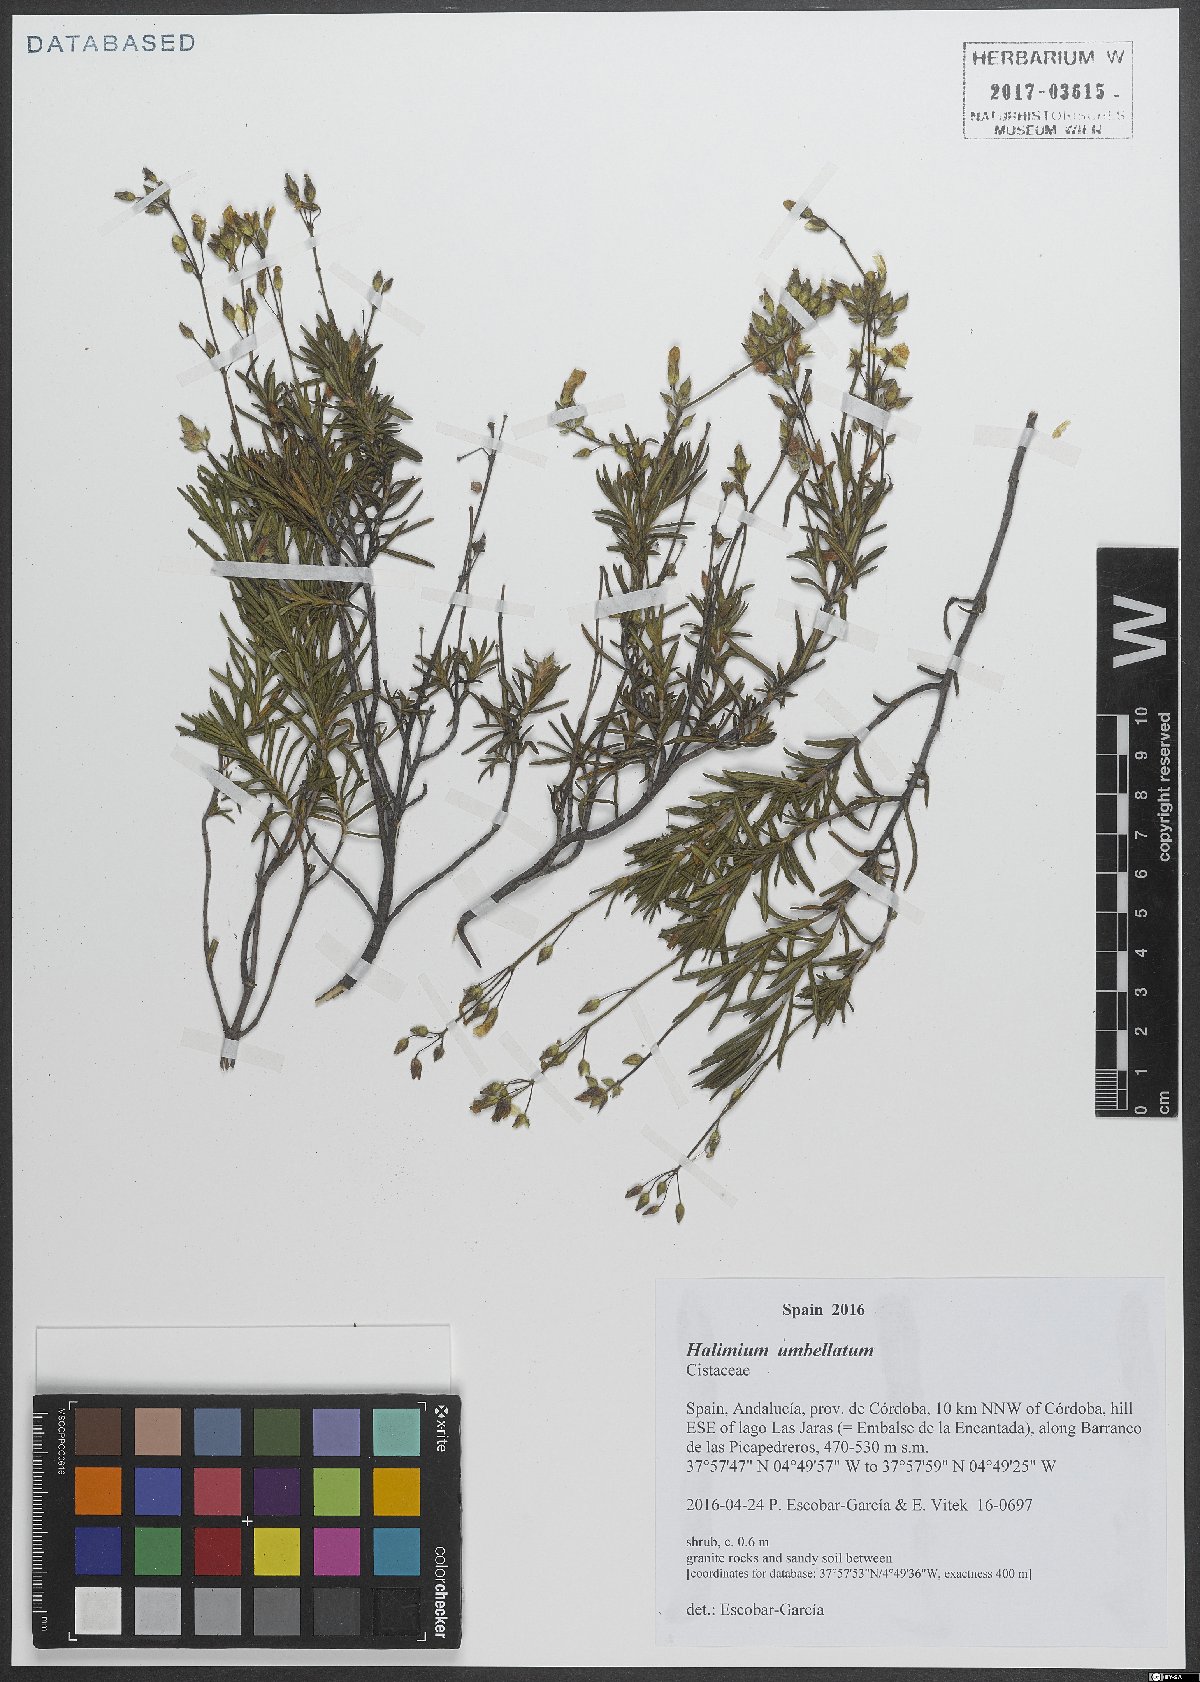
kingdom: Plantae
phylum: Tracheophyta
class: Magnoliopsida
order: Malvales
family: Cistaceae
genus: Halimium
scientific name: Halimium umbellatum
